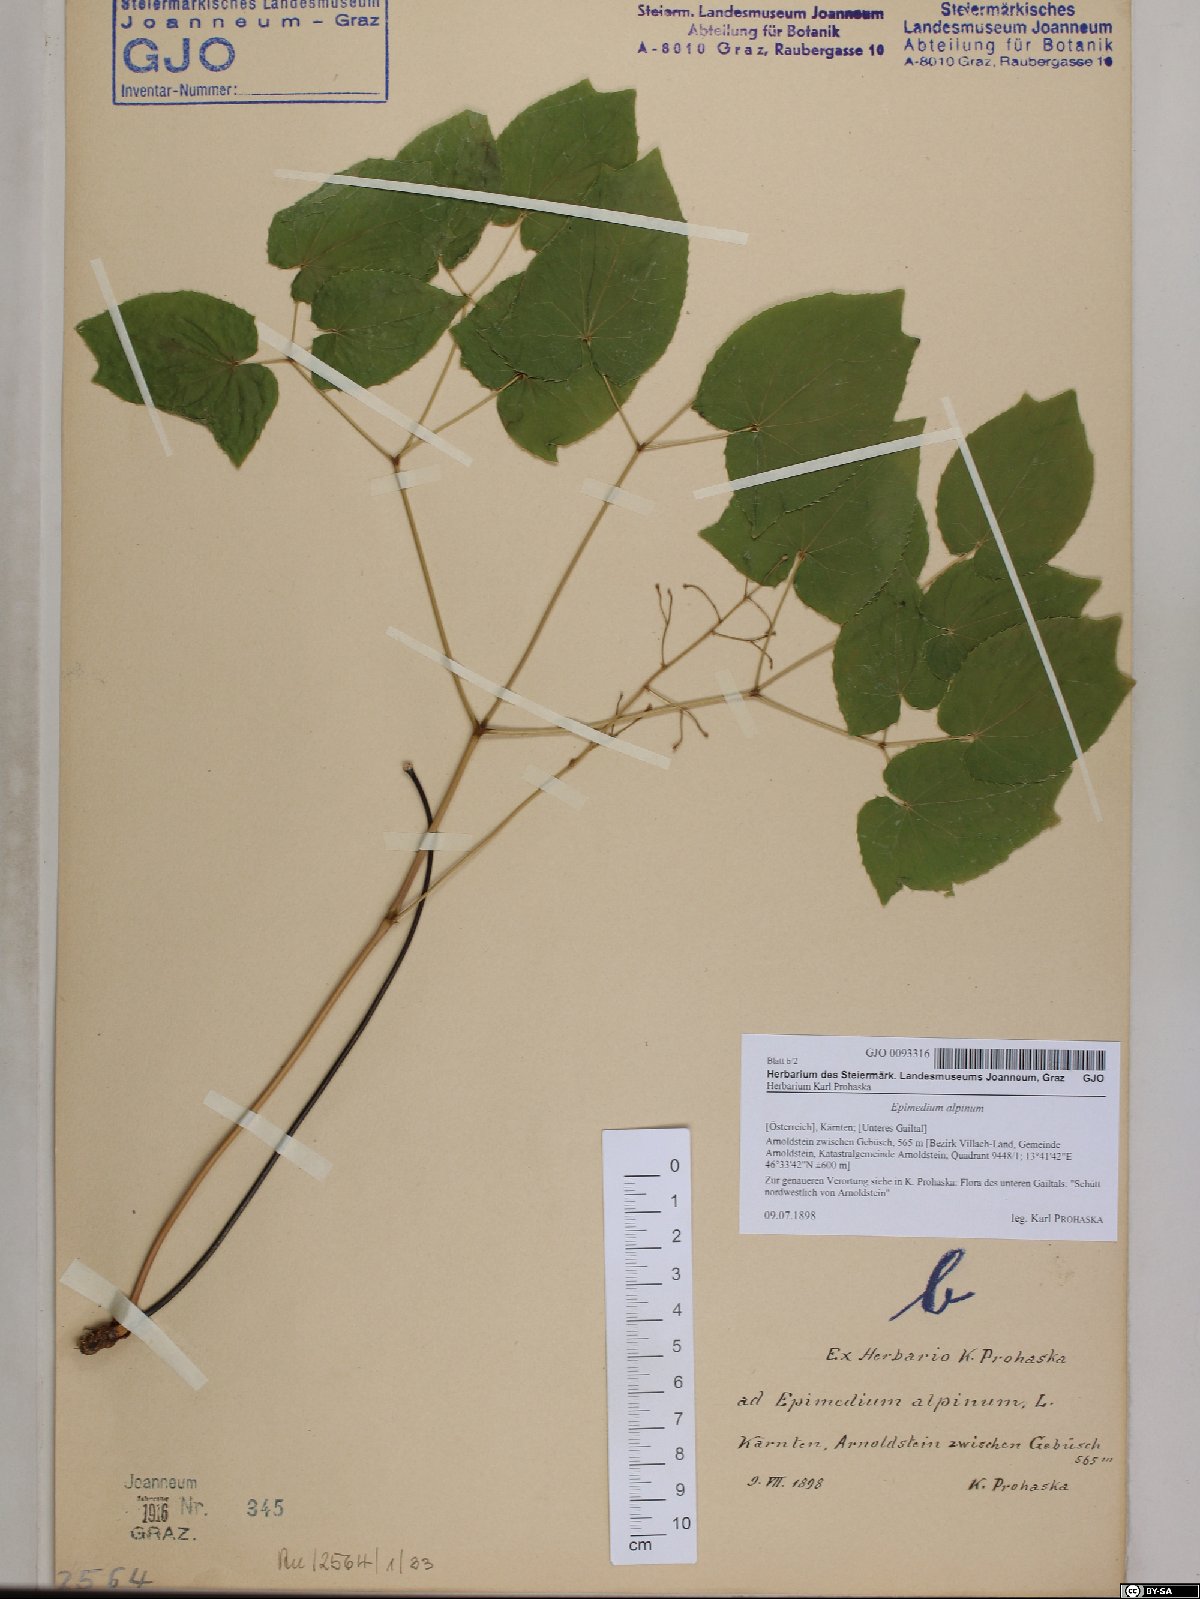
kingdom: Plantae
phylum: Tracheophyta
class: Magnoliopsida
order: Ranunculales
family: Berberidaceae
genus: Epimedium
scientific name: Epimedium alpinum
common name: Barrenwort
